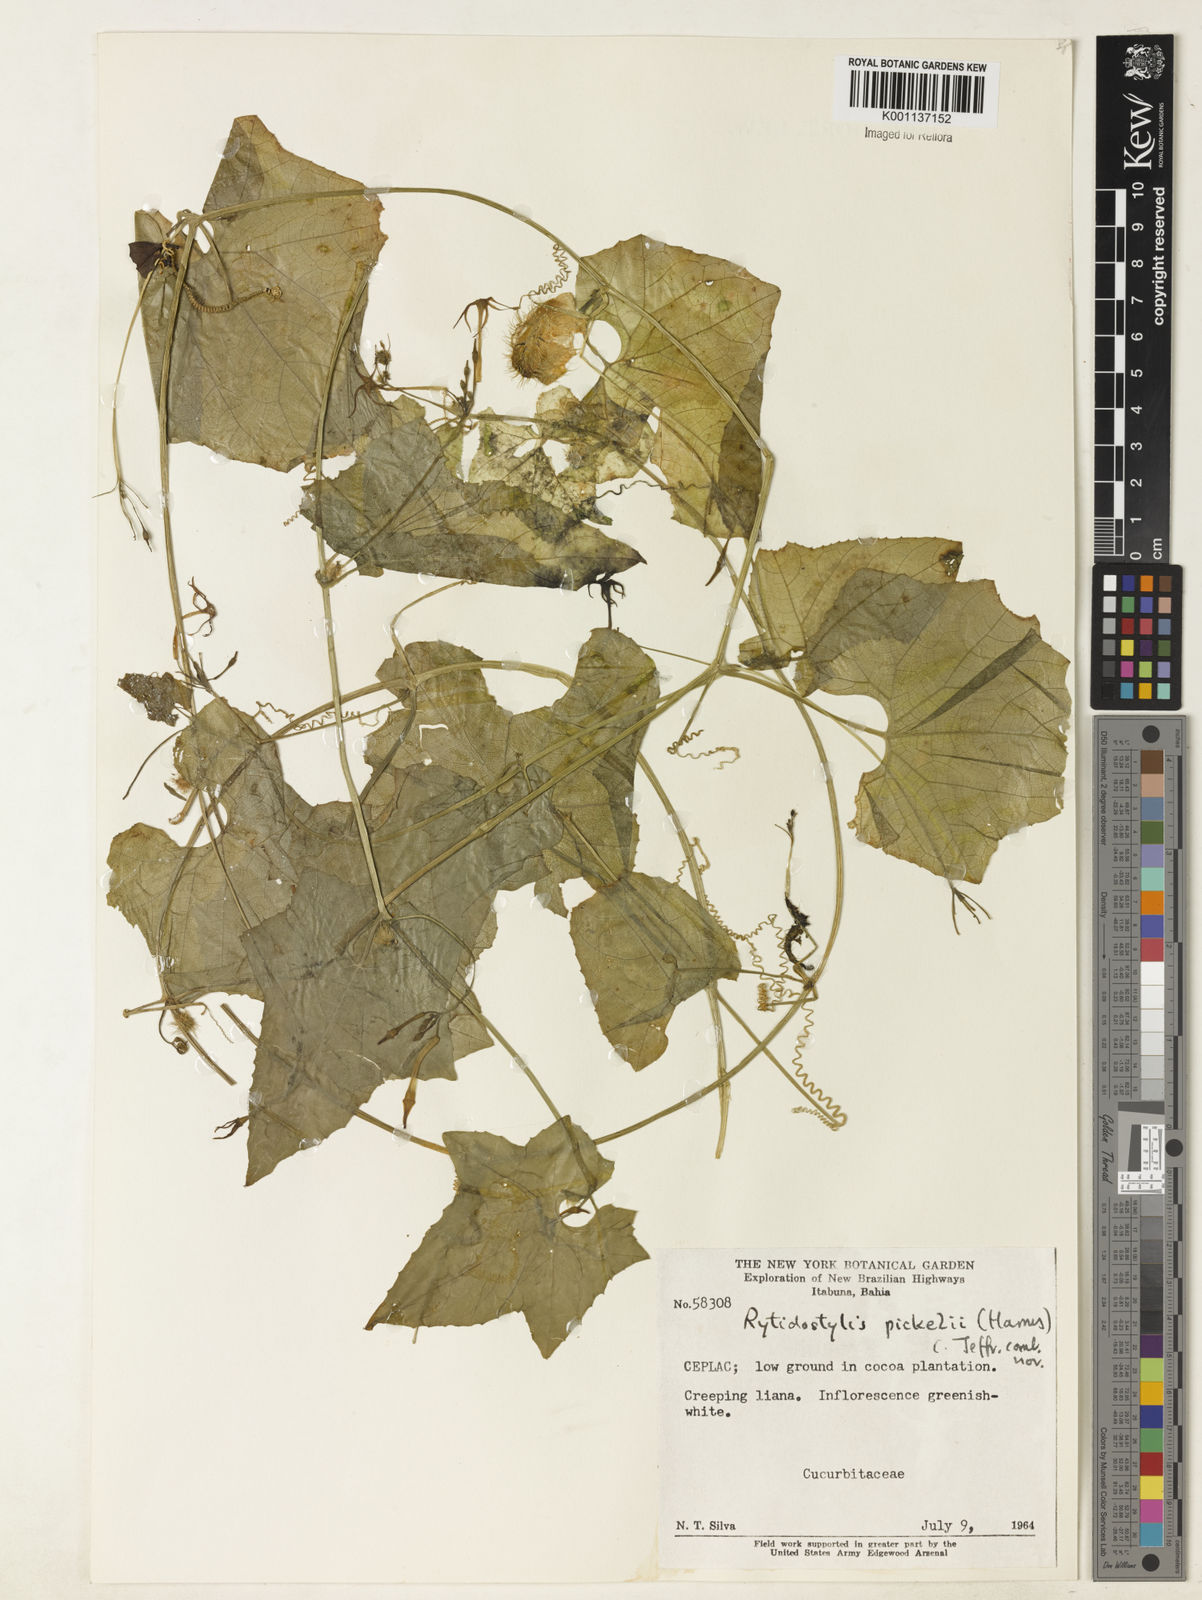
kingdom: Plantae
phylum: Tracheophyta
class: Magnoliopsida
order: Cucurbitales
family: Cucurbitaceae
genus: Cyclanthera
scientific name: Cyclanthera carthagenensis
